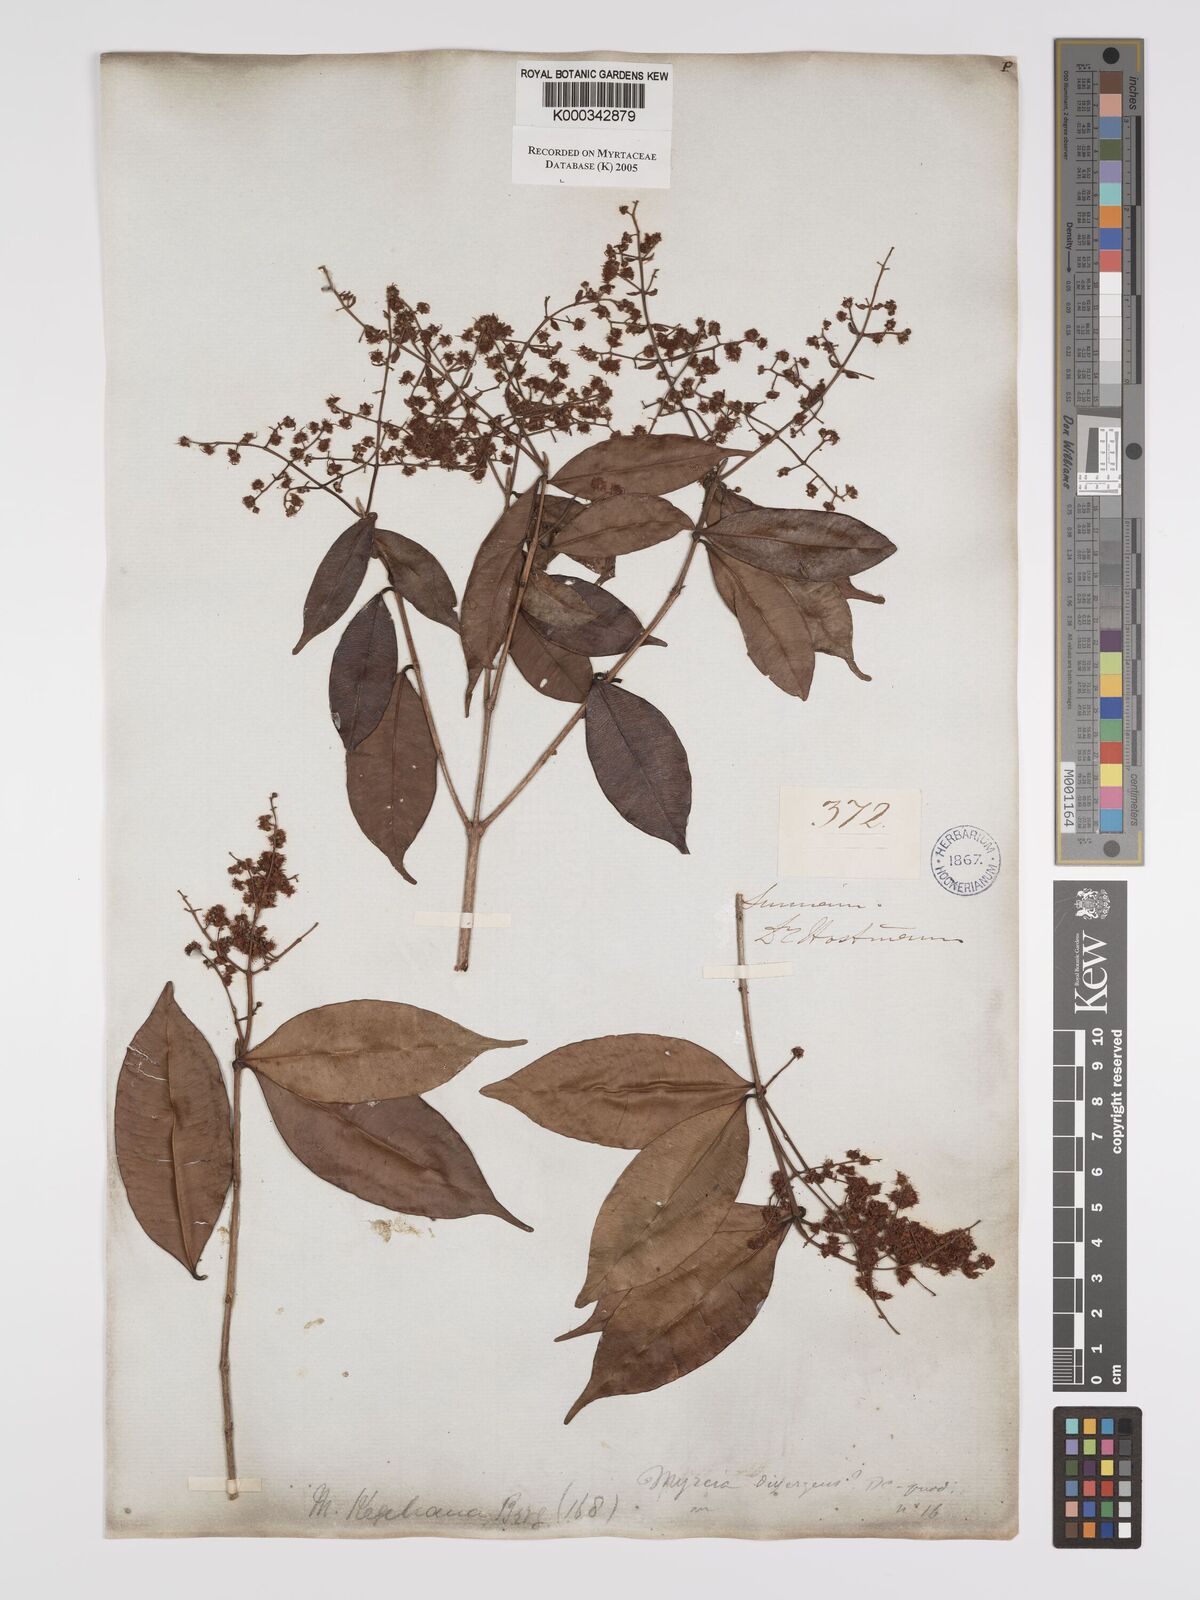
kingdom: Plantae
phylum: Tracheophyta
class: Magnoliopsida
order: Myrtales
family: Myrtaceae
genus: Myrcia
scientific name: Myrcia splendens
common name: Surinam cherry
